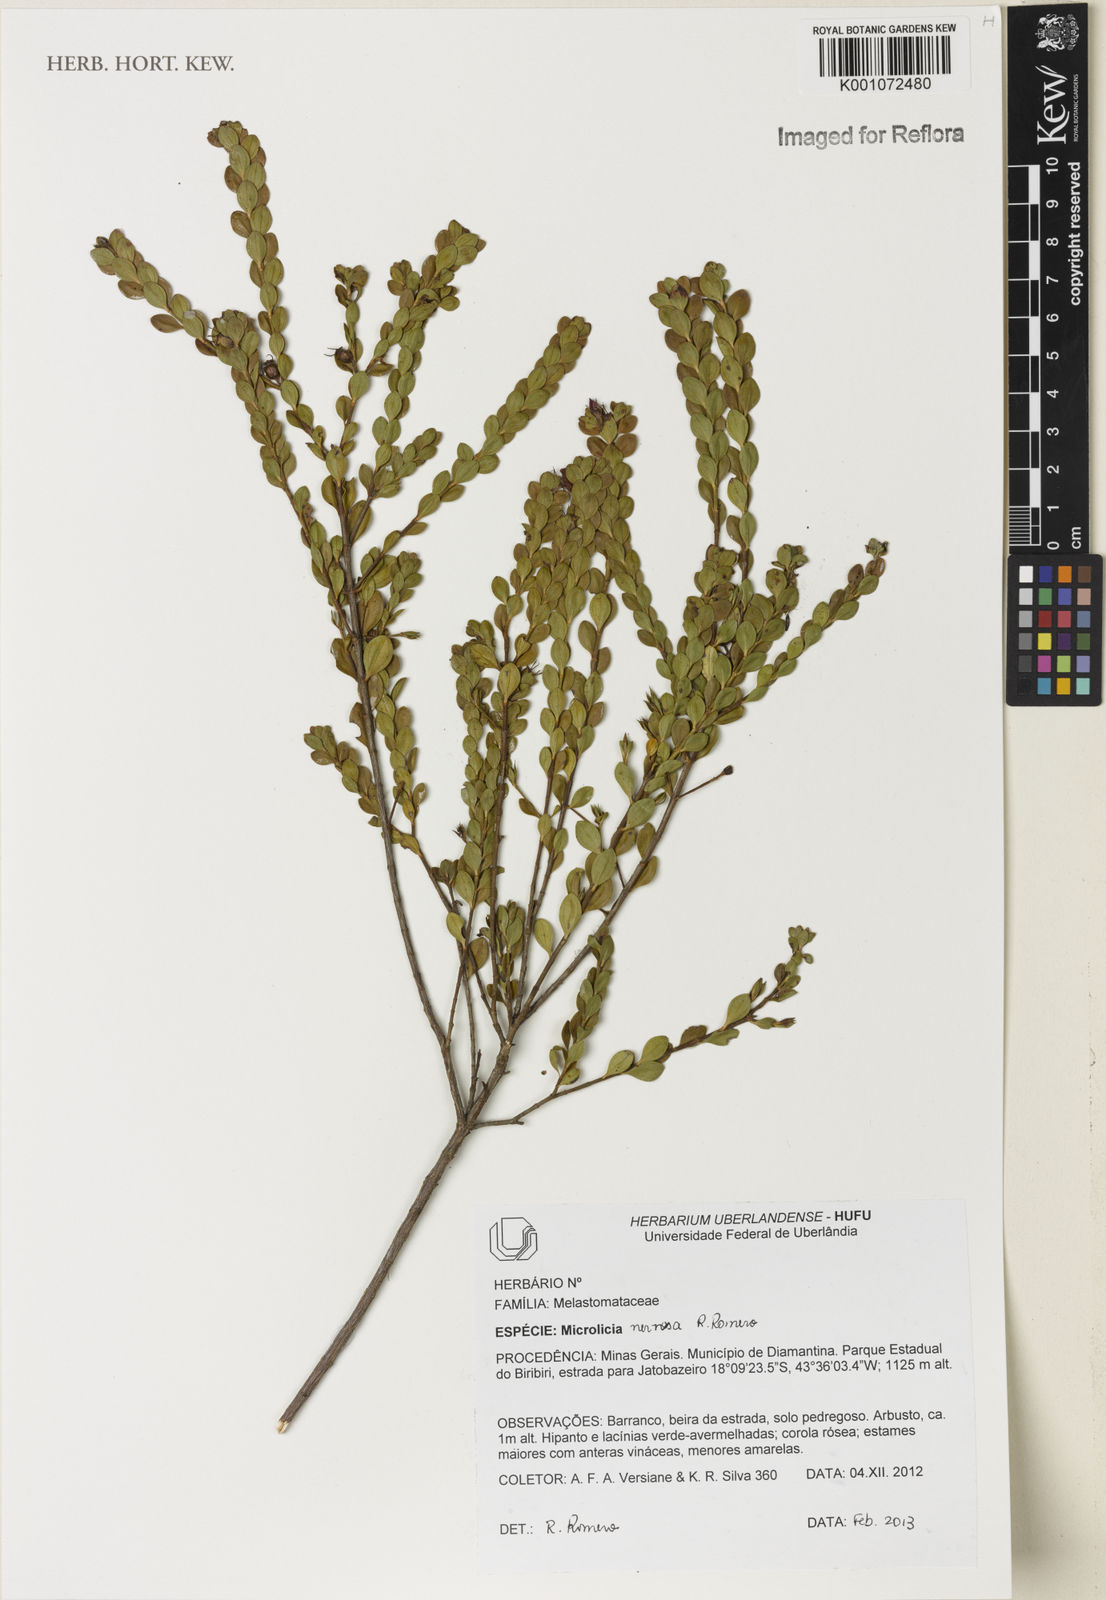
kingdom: Plantae
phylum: Tracheophyta
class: Magnoliopsida
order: Myrtales
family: Melastomataceae
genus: Microlicia
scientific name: Microlicia nervosa
